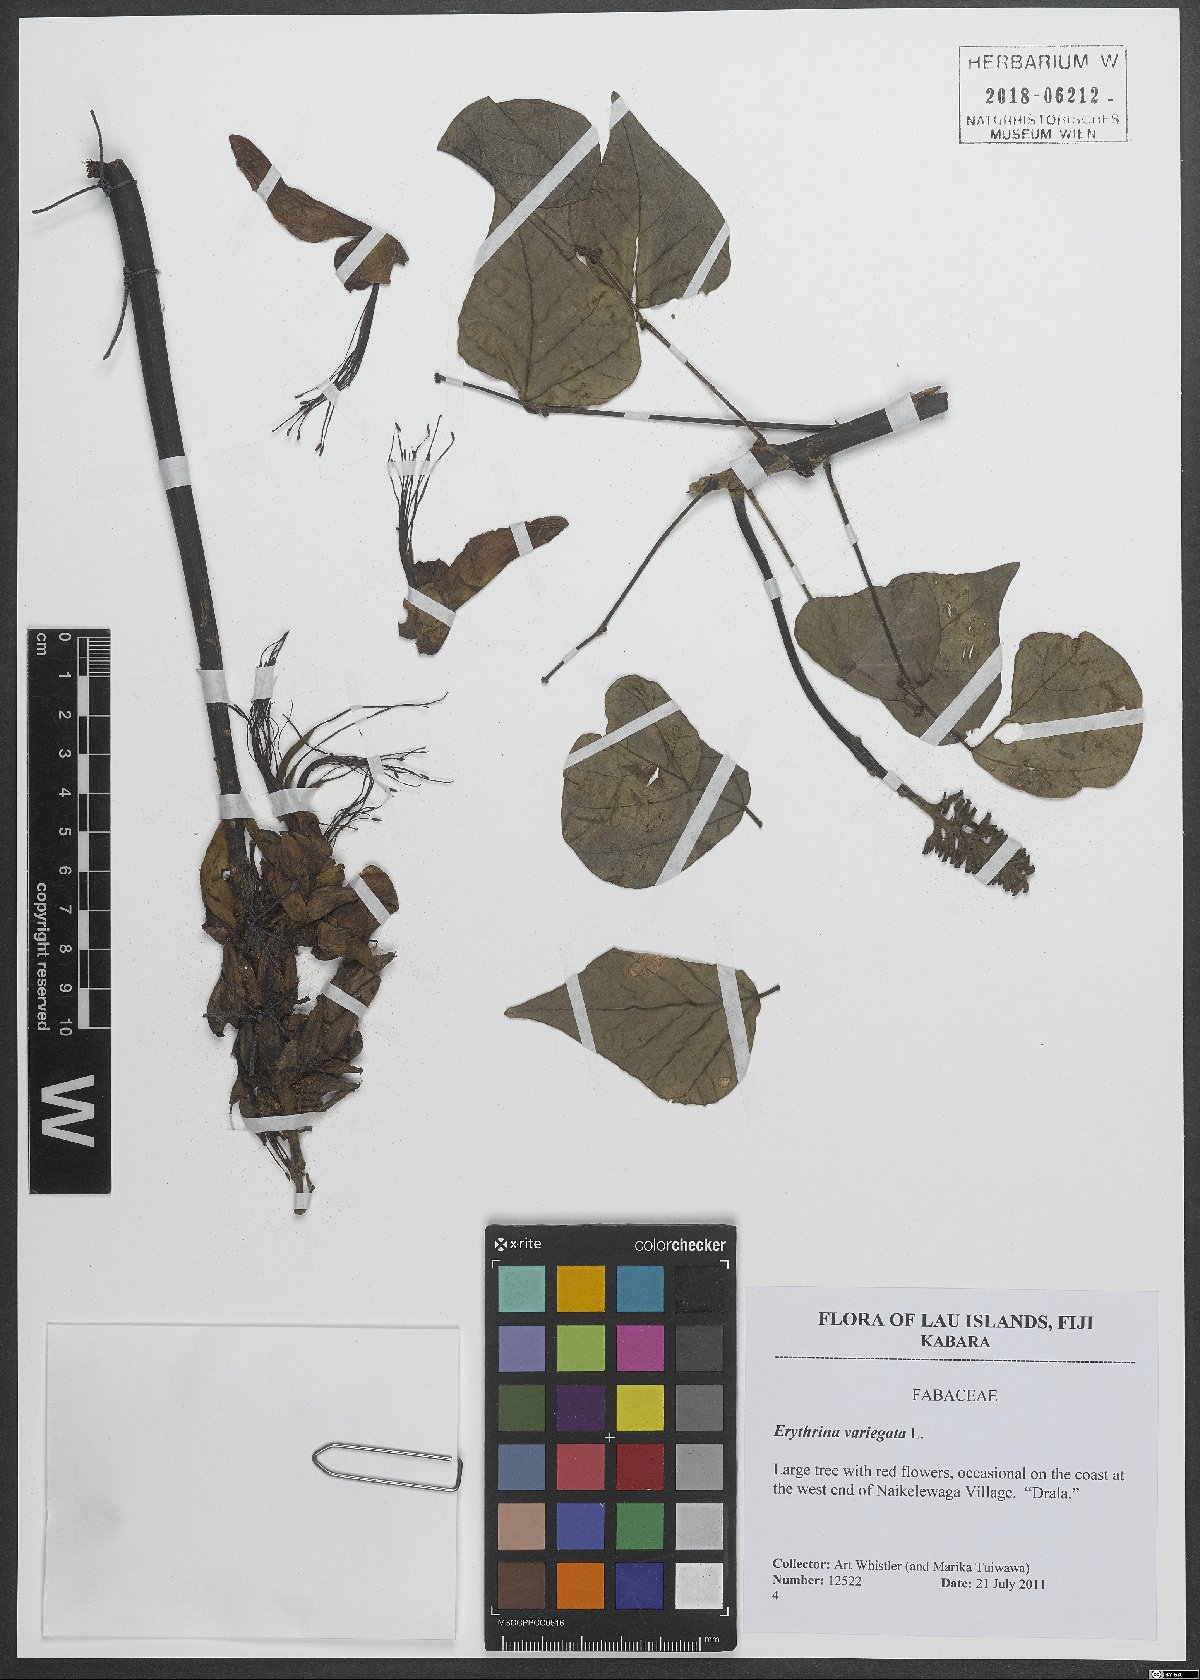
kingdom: Plantae
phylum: Tracheophyta
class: Magnoliopsida
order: Fabales
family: Fabaceae
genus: Erythrina
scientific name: Erythrina variegata
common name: Indian coral tree
